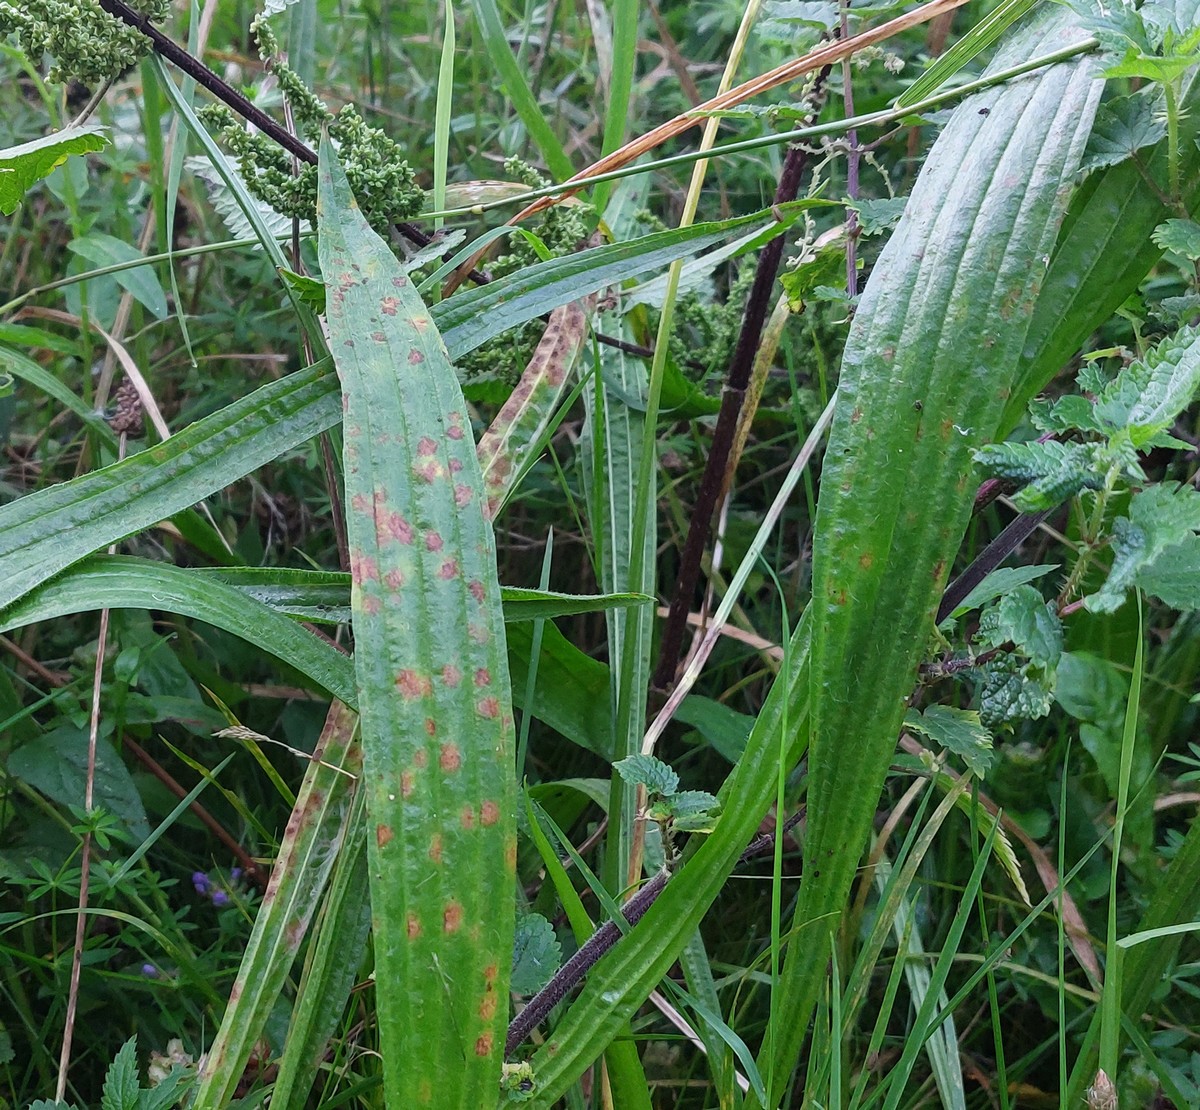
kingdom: Fungi
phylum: Ascomycota
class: Dothideomycetes
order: Mycosphaerellales
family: Mycosphaerellaceae
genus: Ramularia
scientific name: Ramularia rhabdospora
